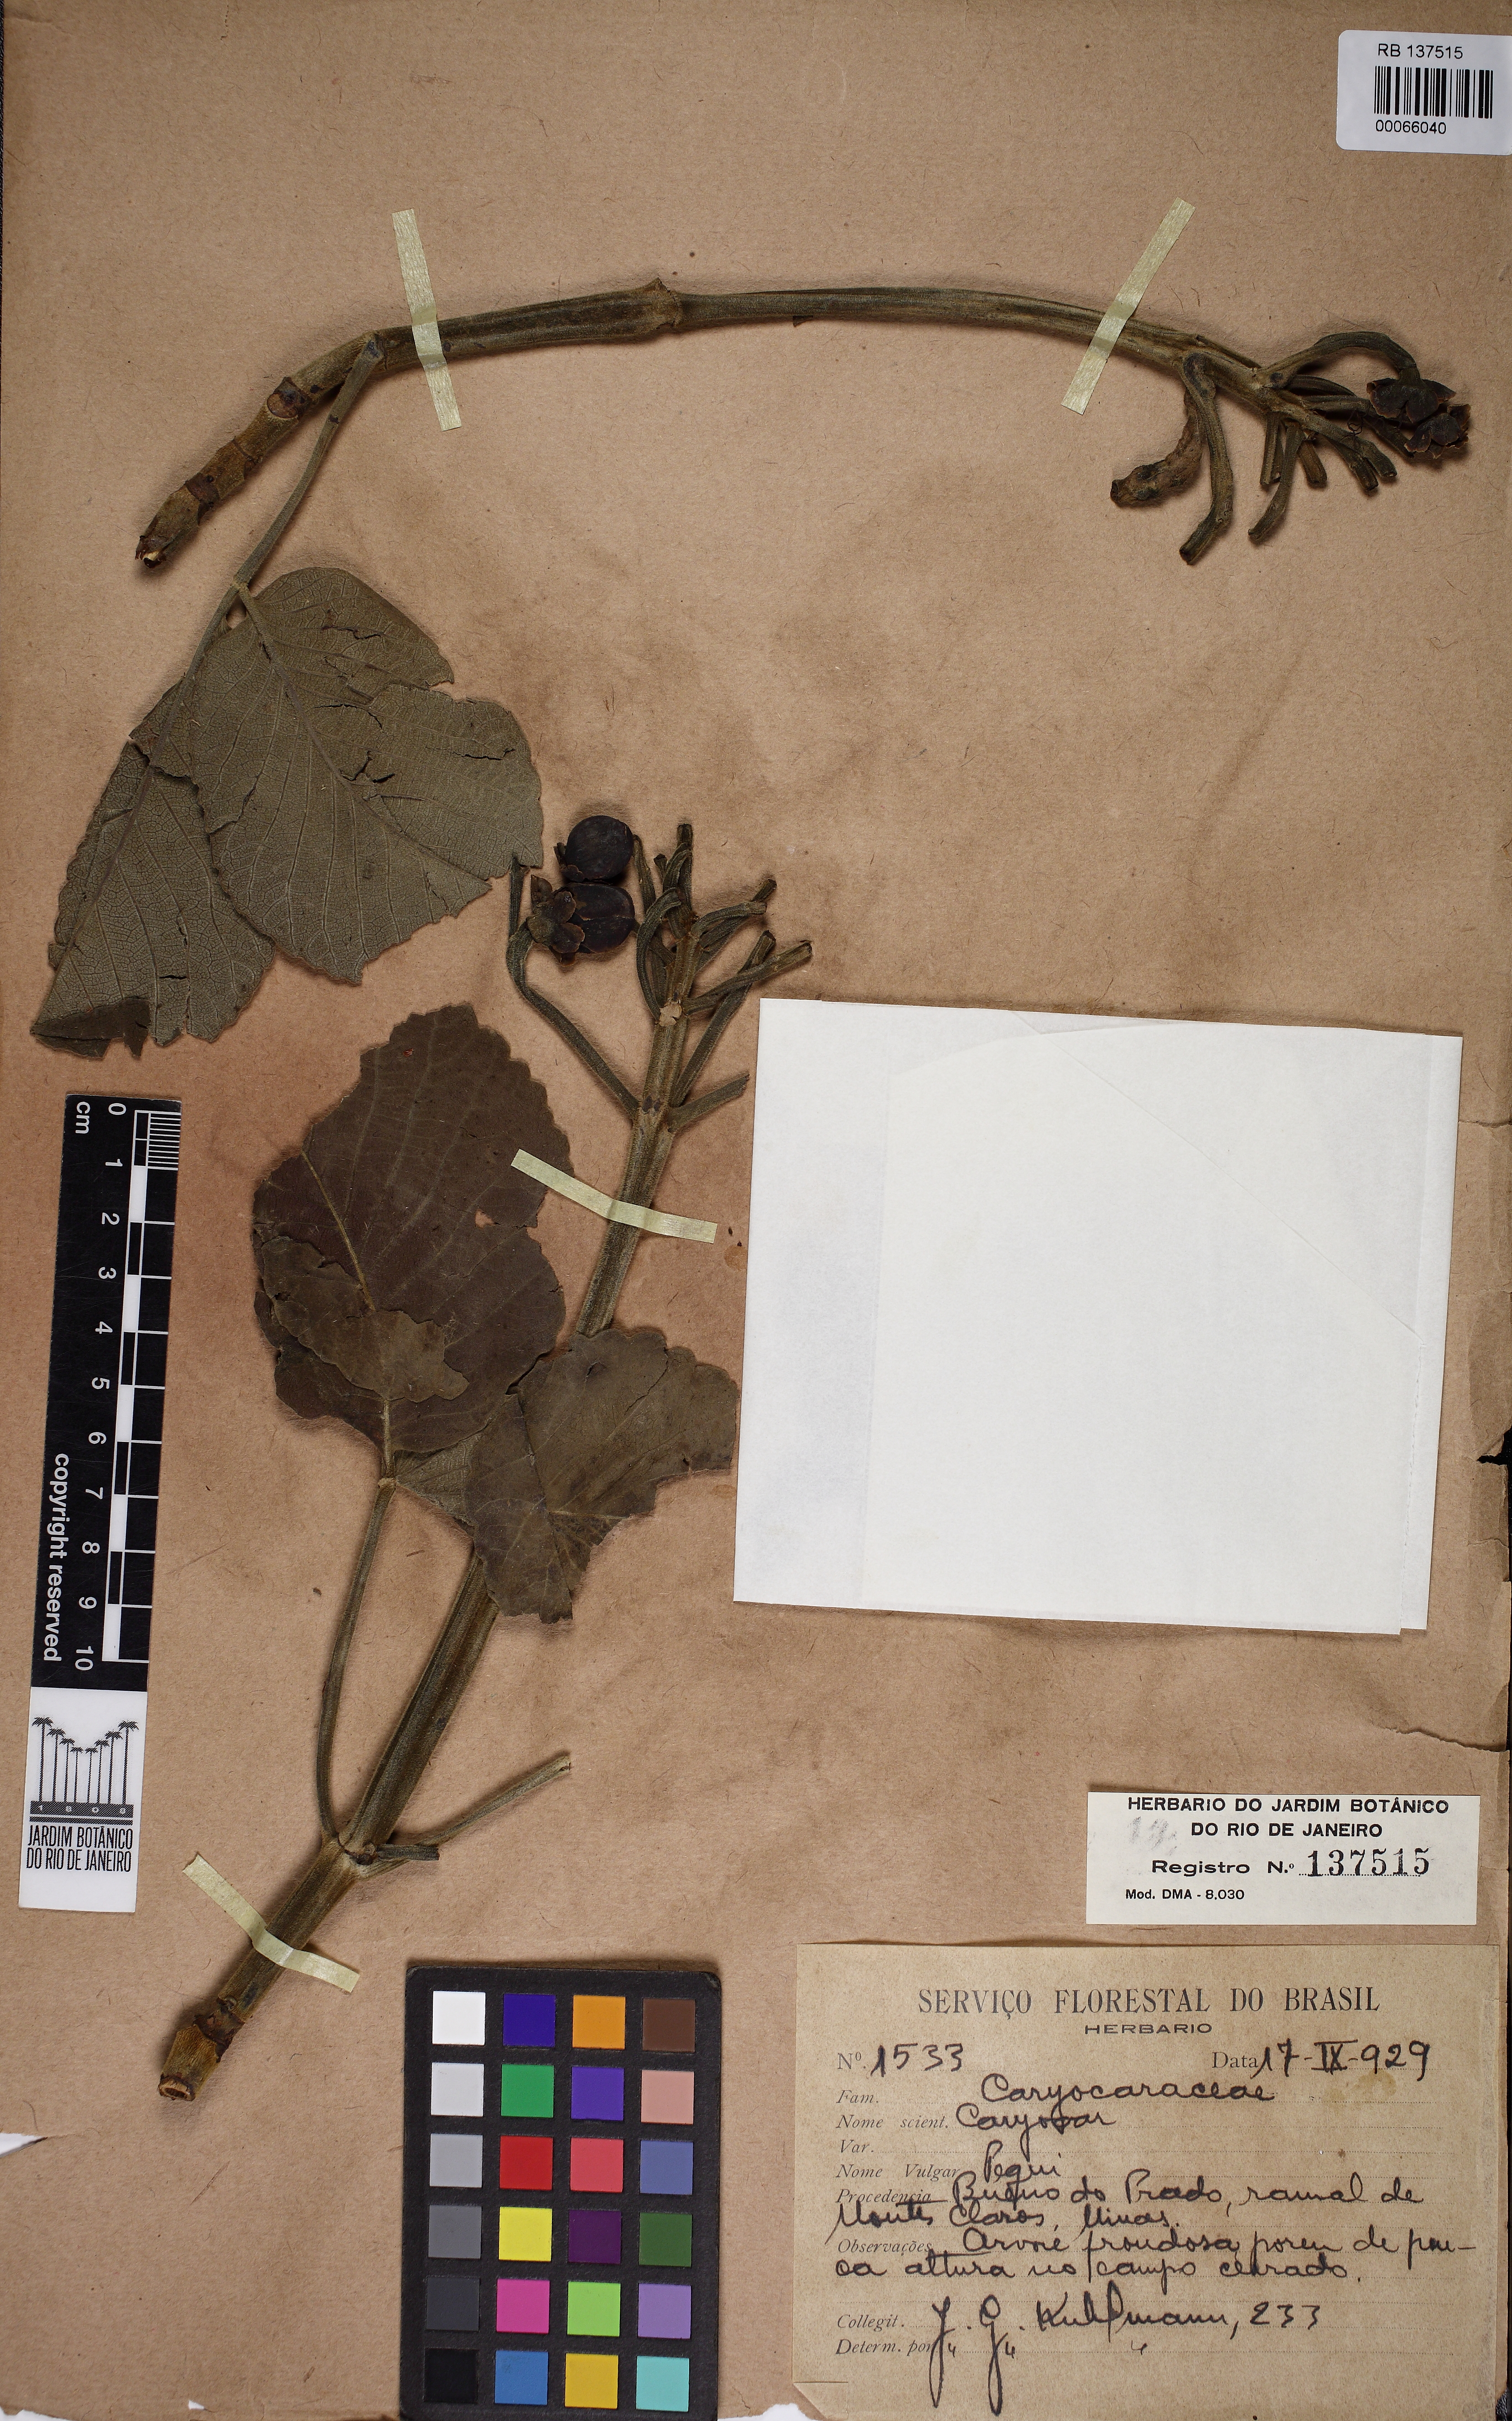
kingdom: Plantae
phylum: Tracheophyta
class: Magnoliopsida
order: Malpighiales
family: Caryocaraceae
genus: Caryocar
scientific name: Caryocar
